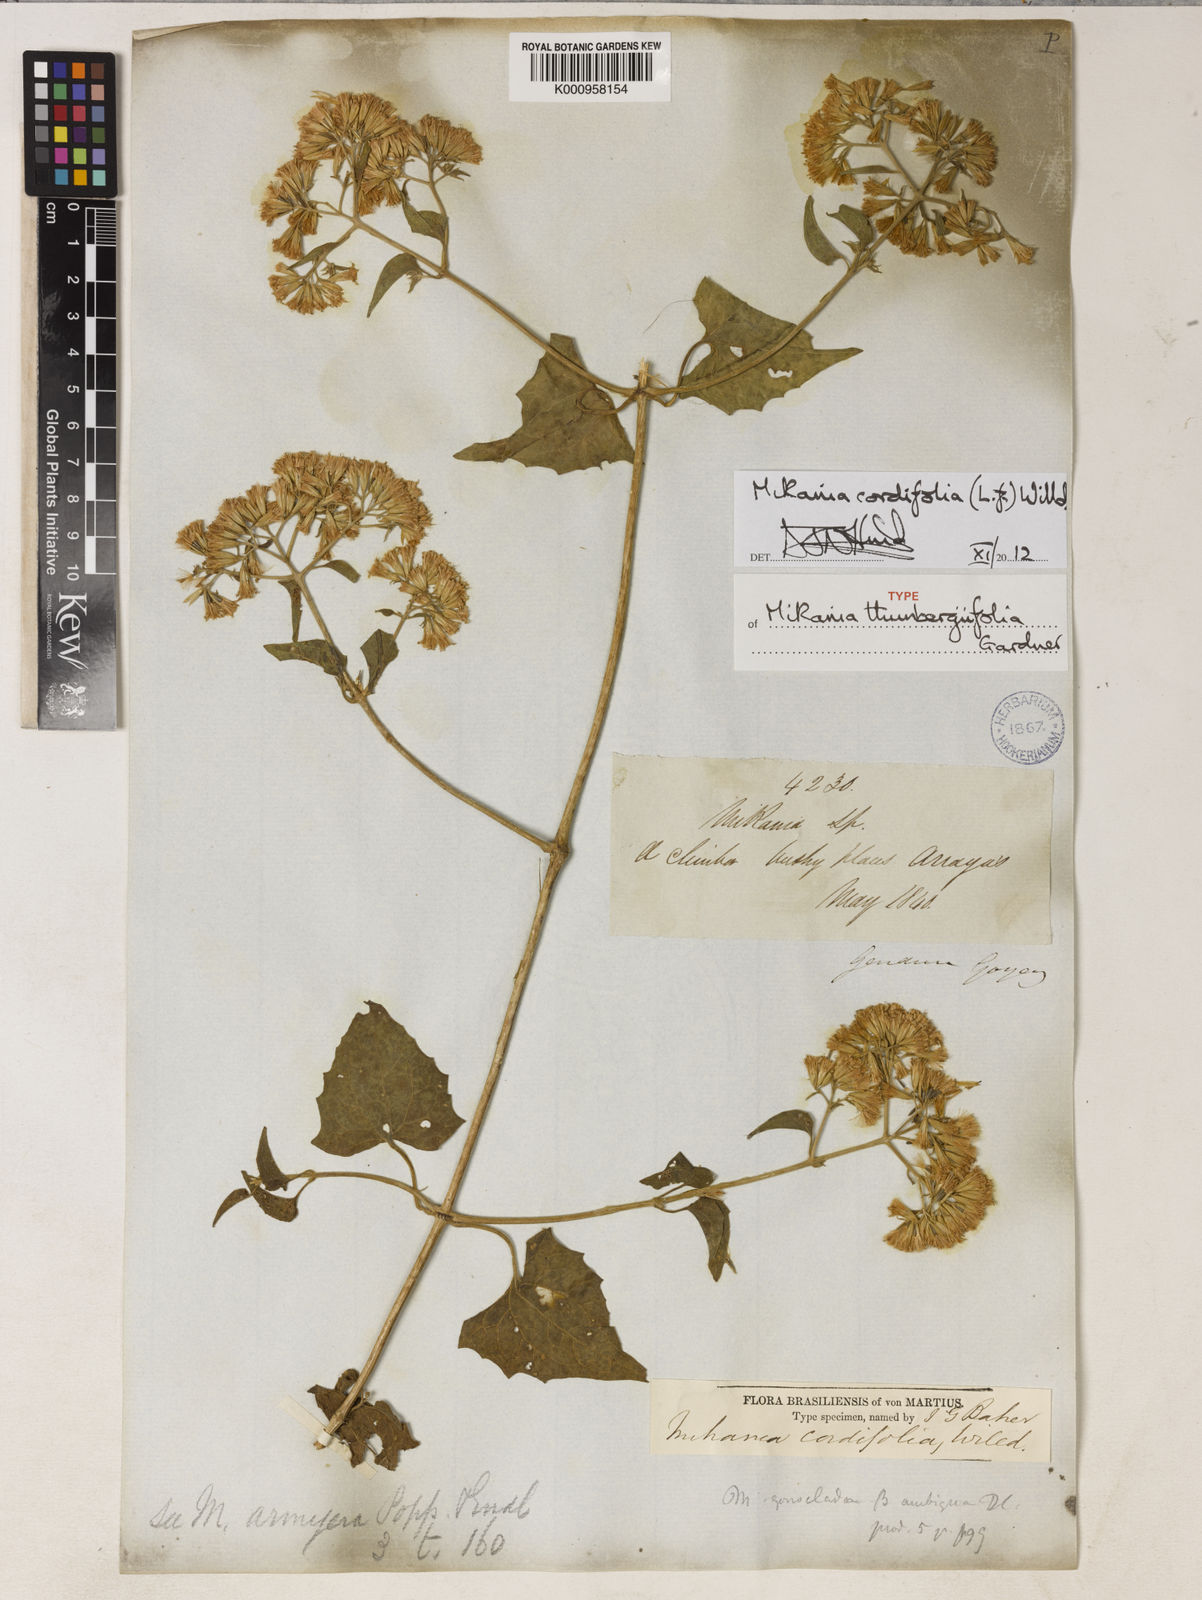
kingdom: Plantae
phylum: Tracheophyta
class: Magnoliopsida
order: Asterales
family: Asteraceae
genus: Mikania
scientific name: Mikania cordifolia
